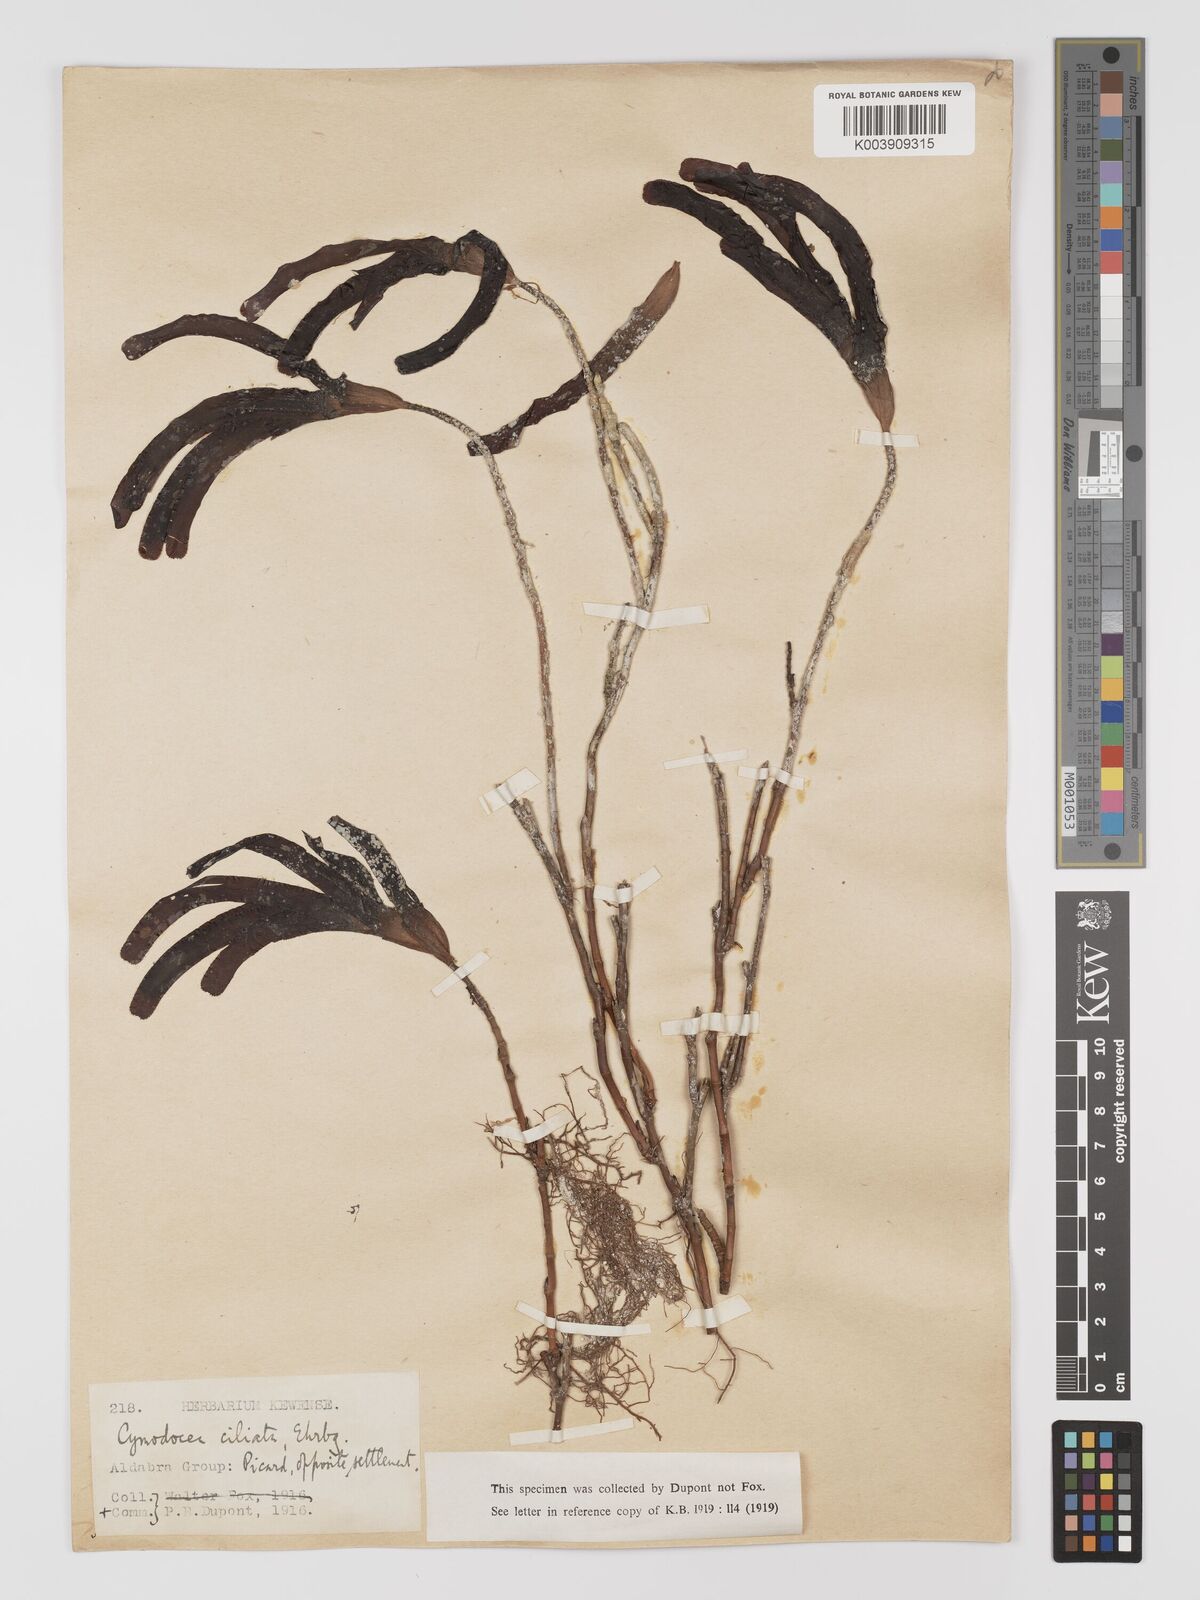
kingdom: Plantae
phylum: Tracheophyta
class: Liliopsida
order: Alismatales
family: Cymodoceaceae
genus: Thalassodendron
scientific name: Thalassodendron ciliatum
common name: Species code: tc
